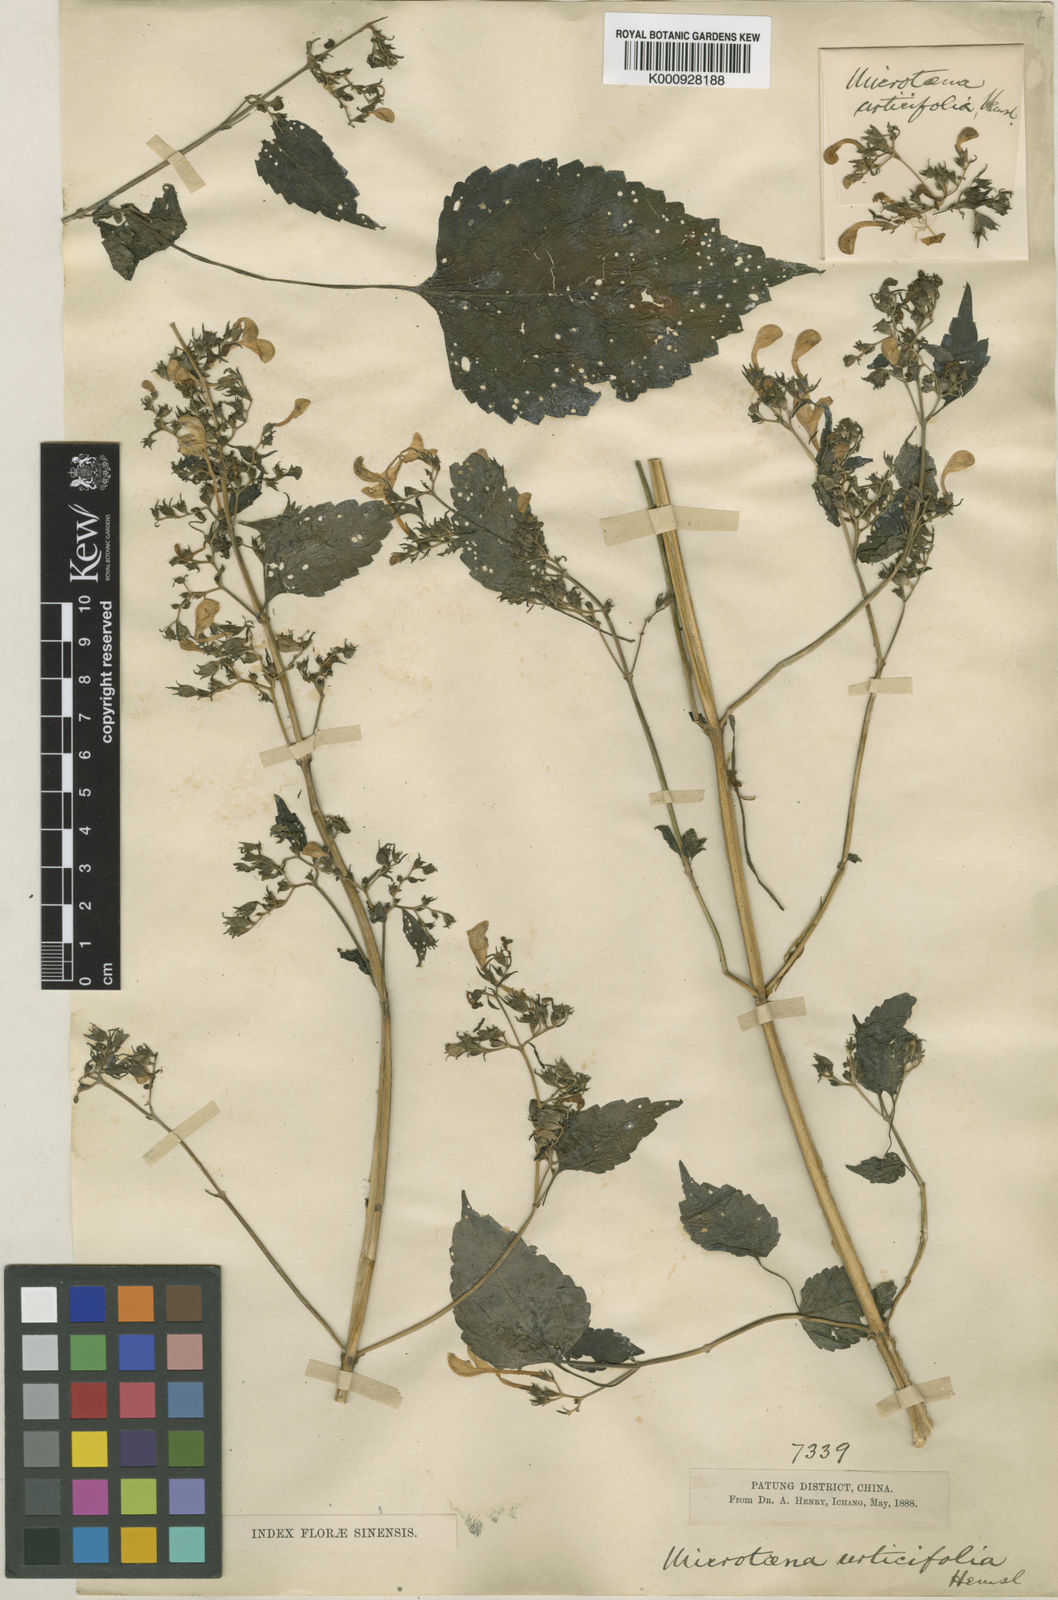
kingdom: Plantae
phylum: Tracheophyta
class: Magnoliopsida
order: Lamiales
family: Lamiaceae
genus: Microtoena
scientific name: Microtoena urticifolia
